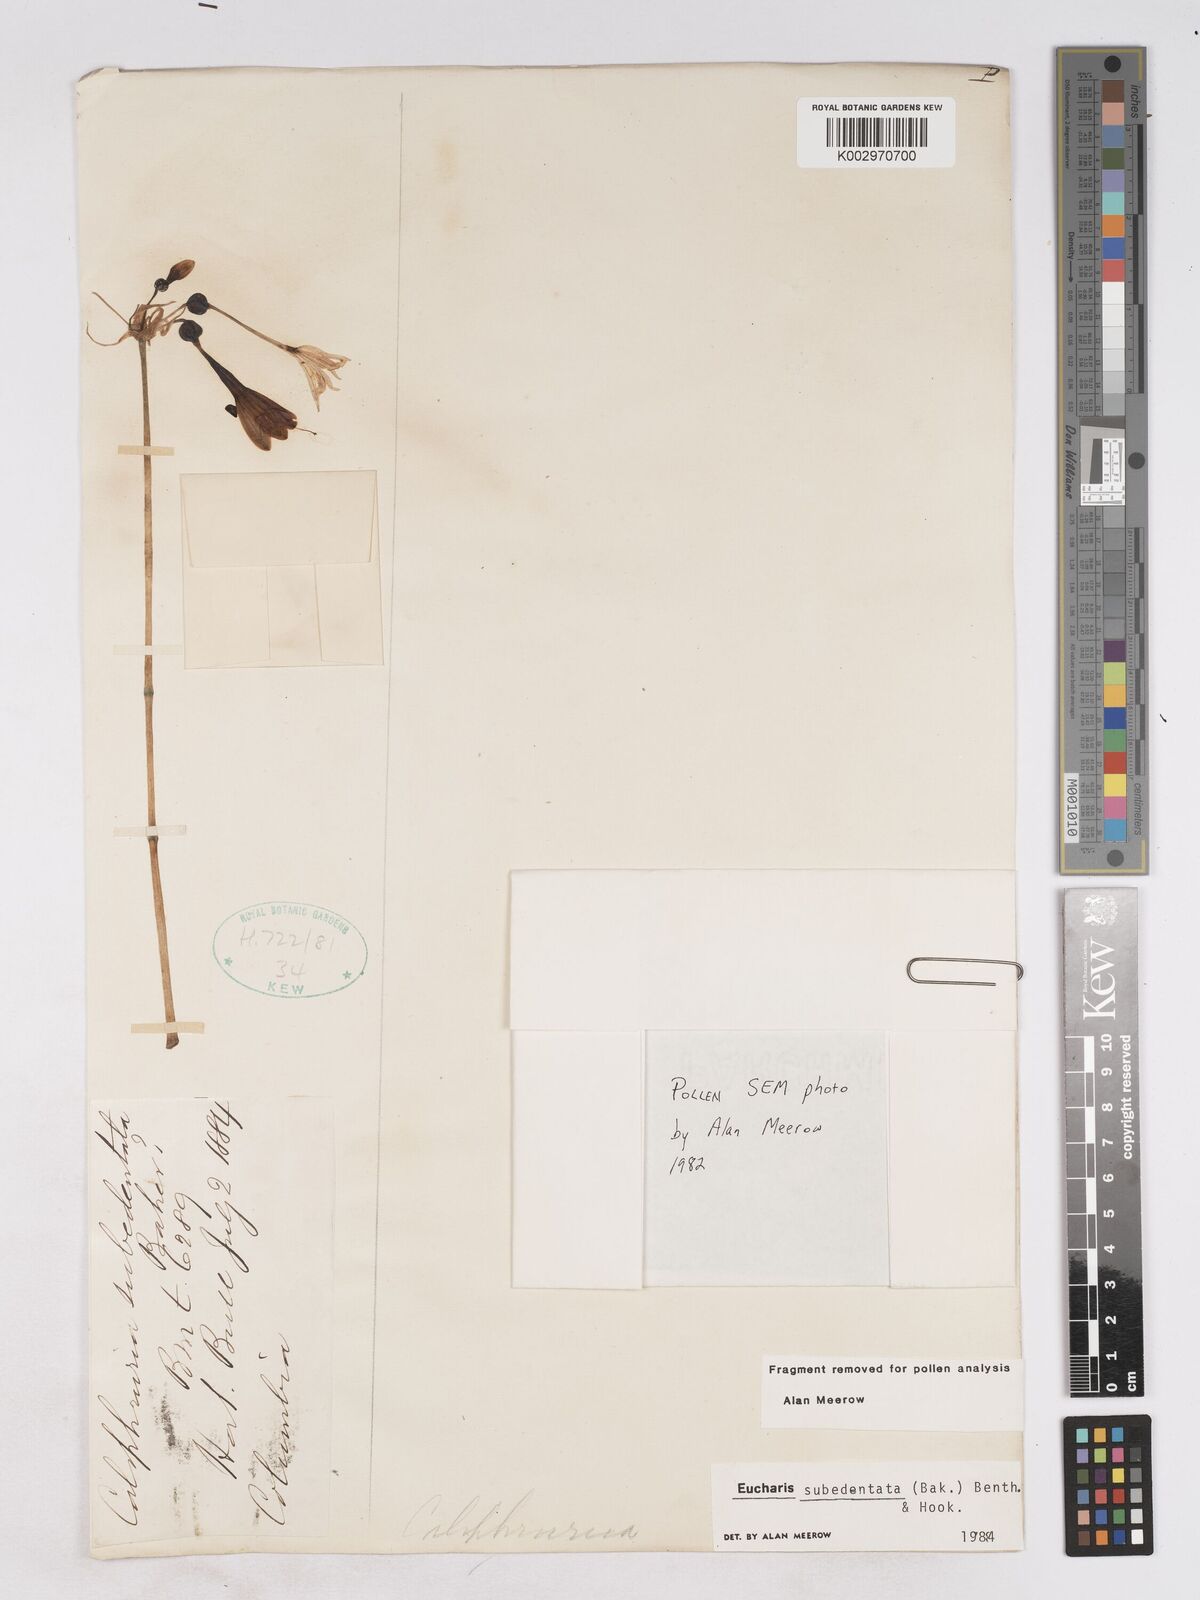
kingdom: Plantae
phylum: Tracheophyta
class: Liliopsida
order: Asparagales
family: Amaryllidaceae
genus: Urceolina
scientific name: Urceolina subedentata
